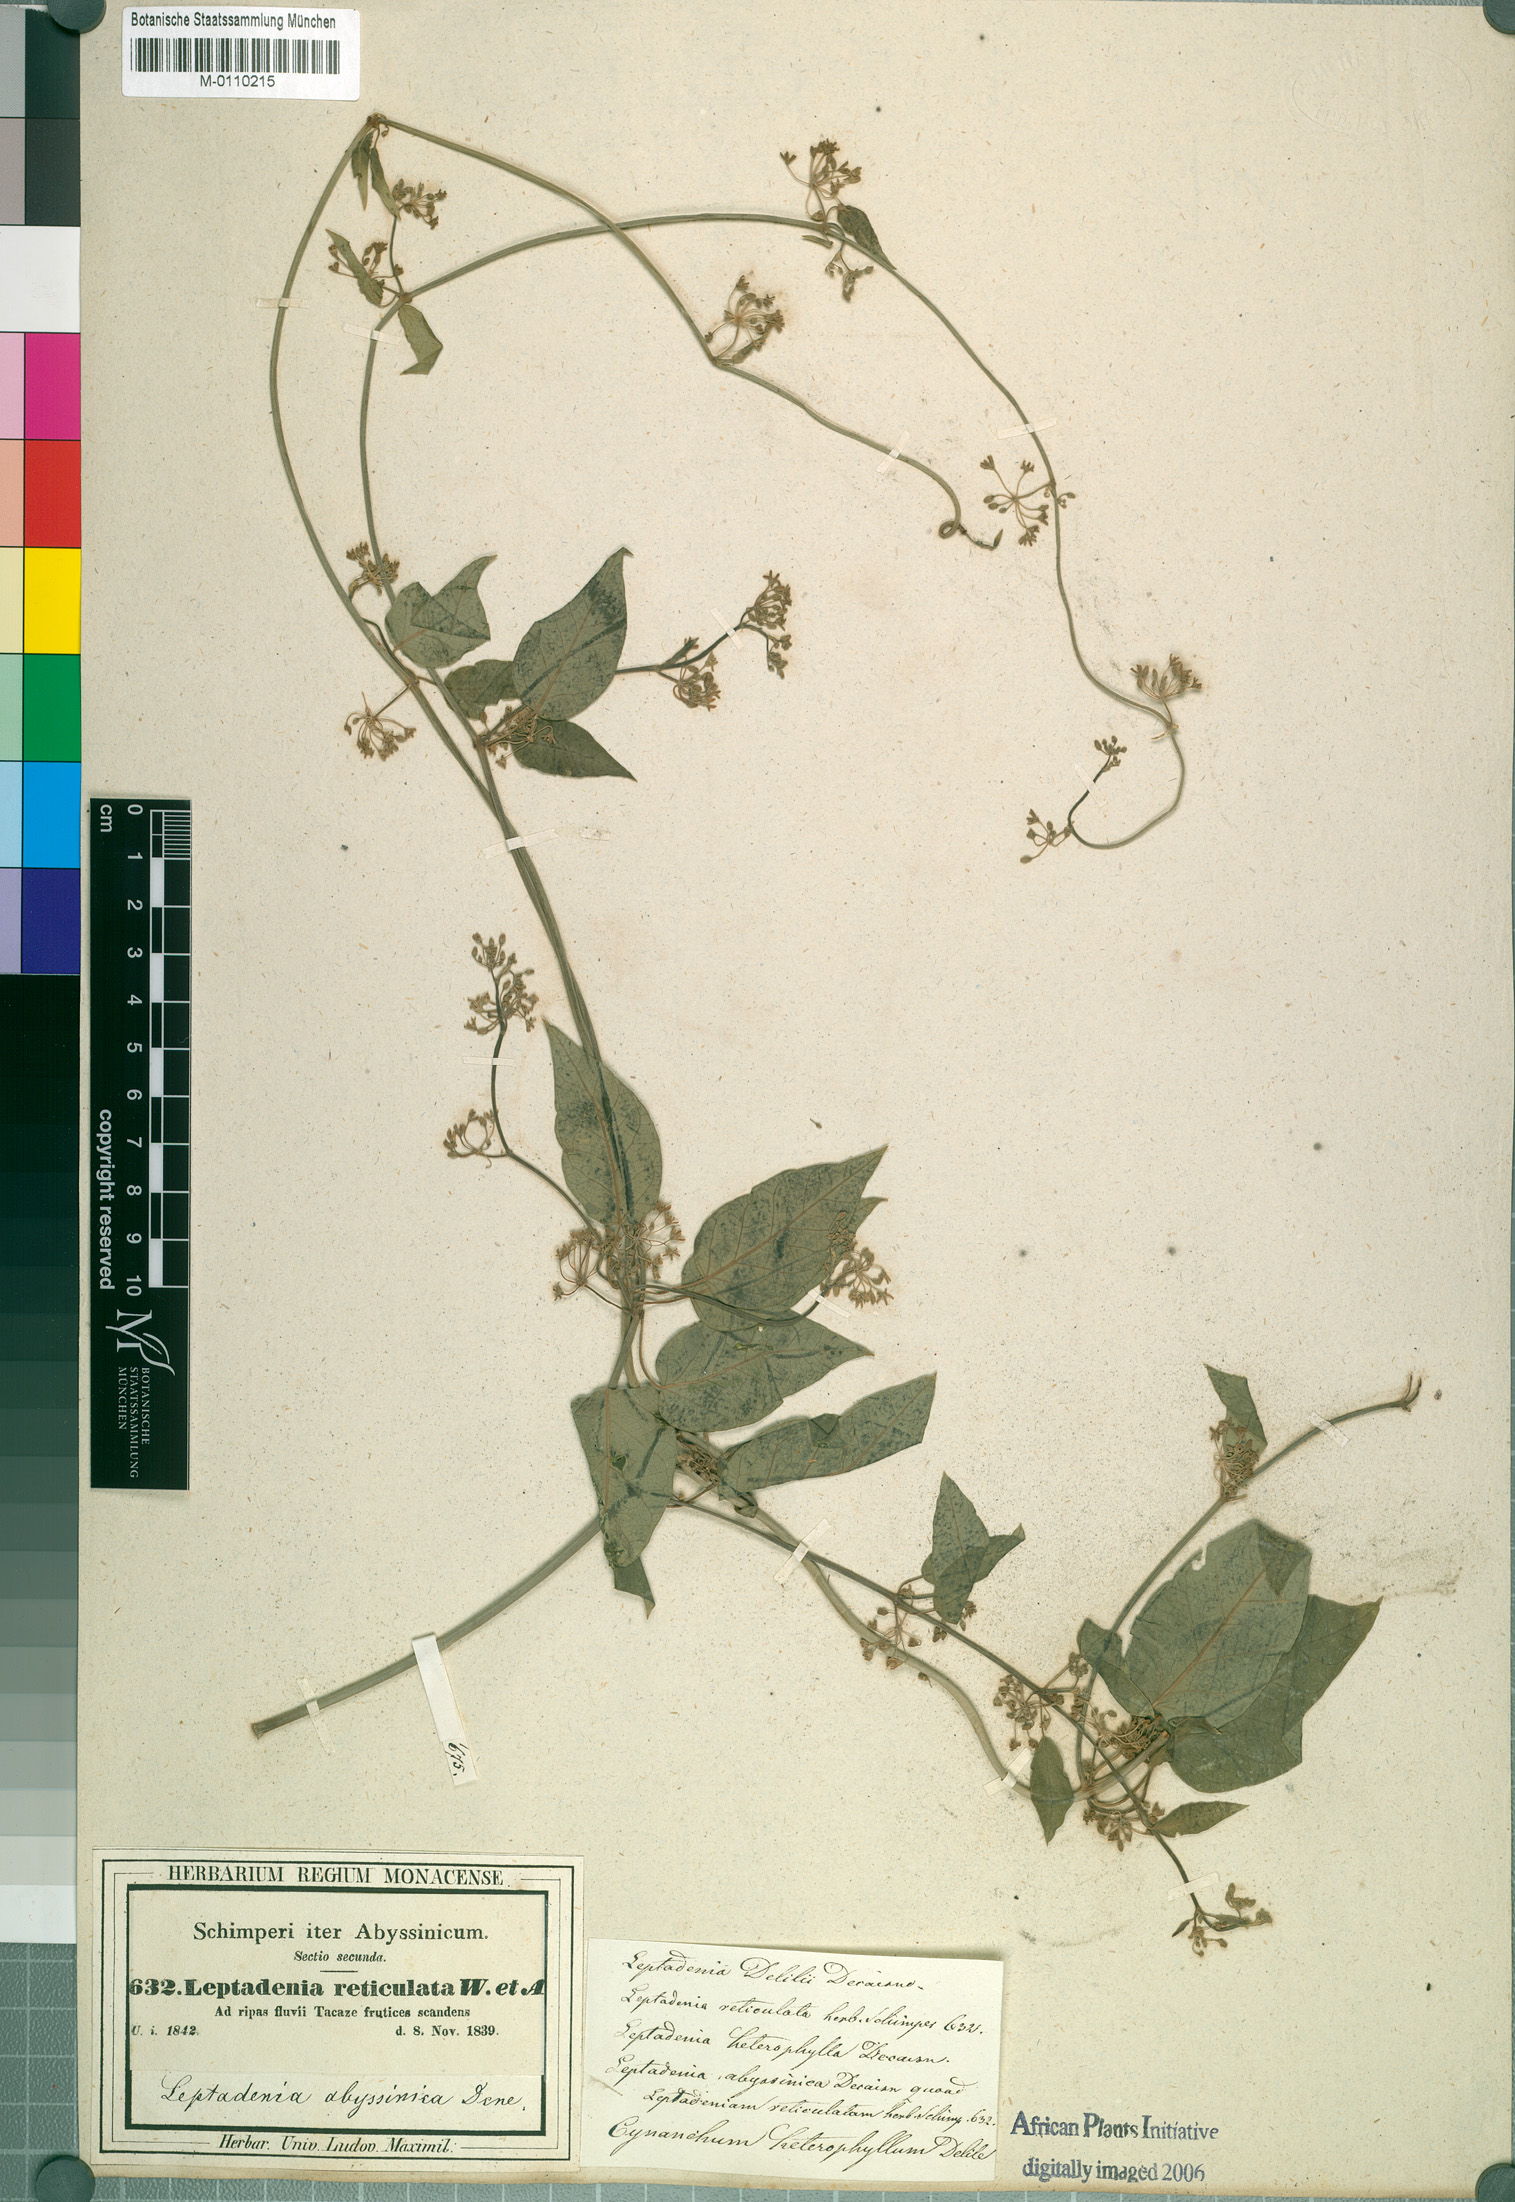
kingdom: Plantae
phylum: Tracheophyta
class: Magnoliopsida
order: Gentianales
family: Apocynaceae
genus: Leptadenia
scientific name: Leptadenia arborea
